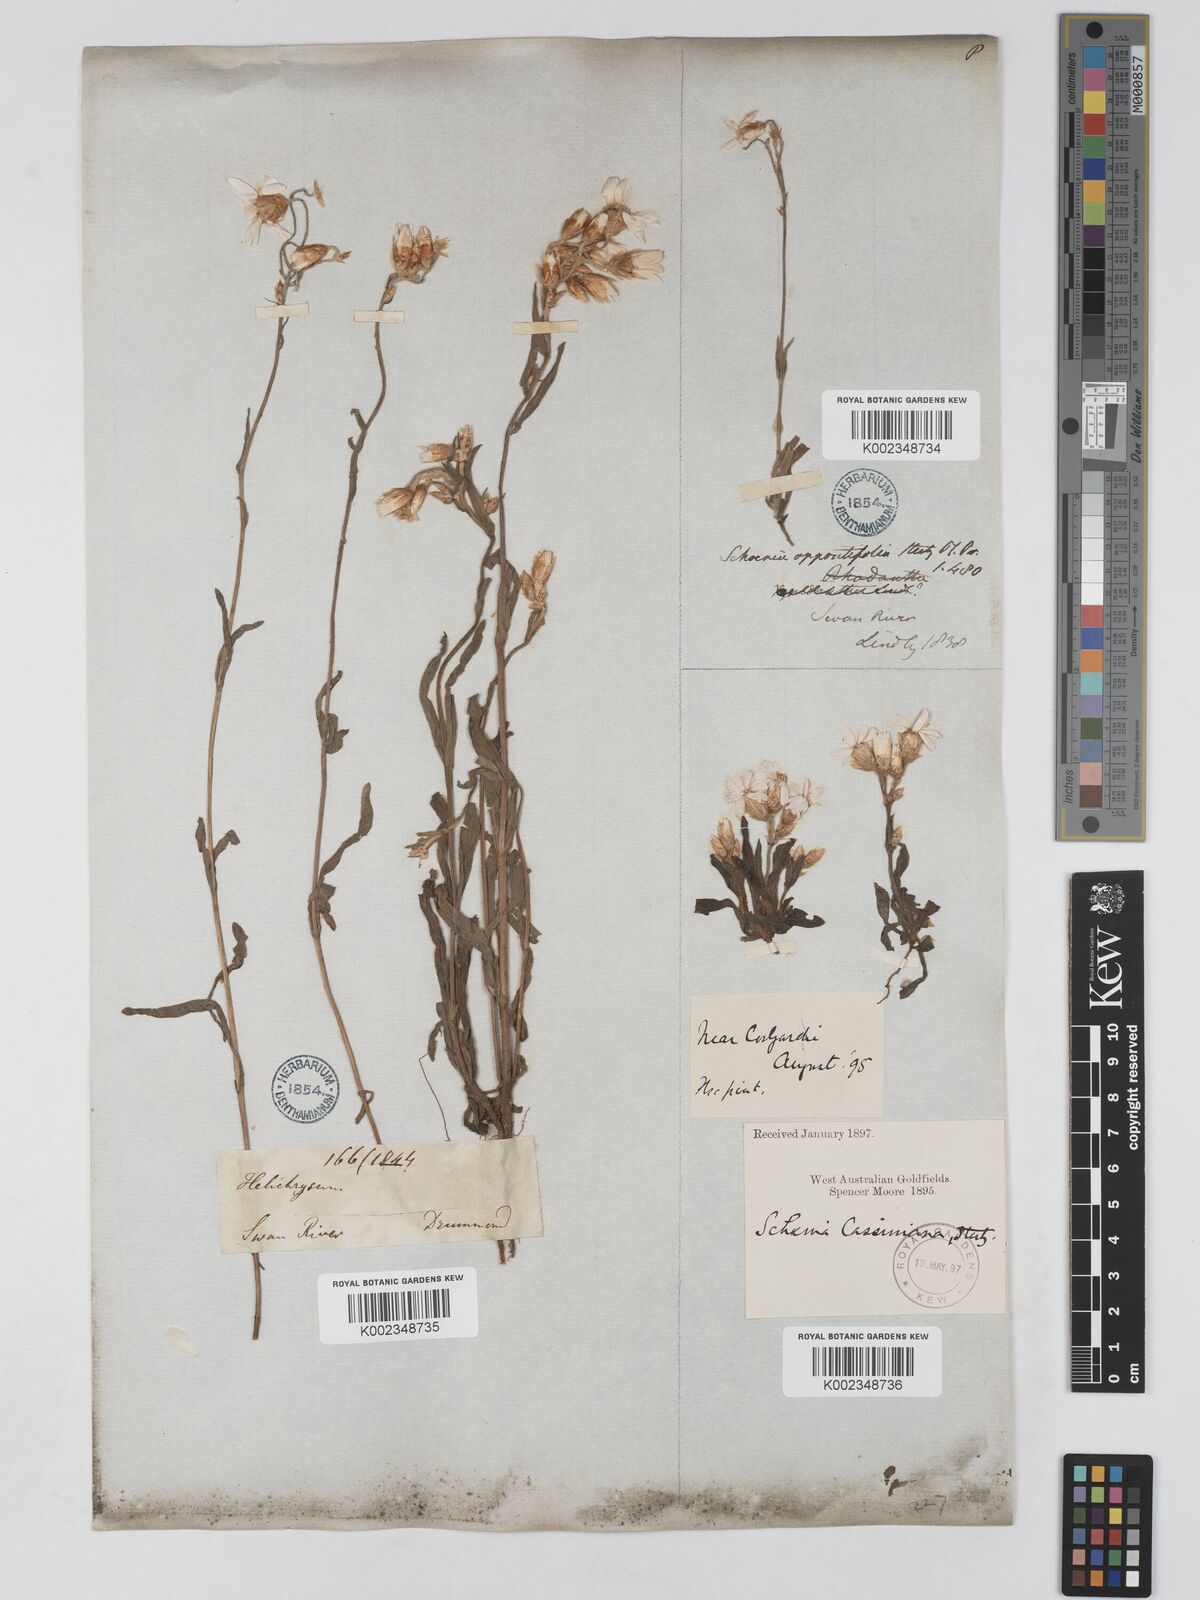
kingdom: Plantae
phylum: Tracheophyta
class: Magnoliopsida
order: Asterales
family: Asteraceae
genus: Schoenia
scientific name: Schoenia cassiniana
